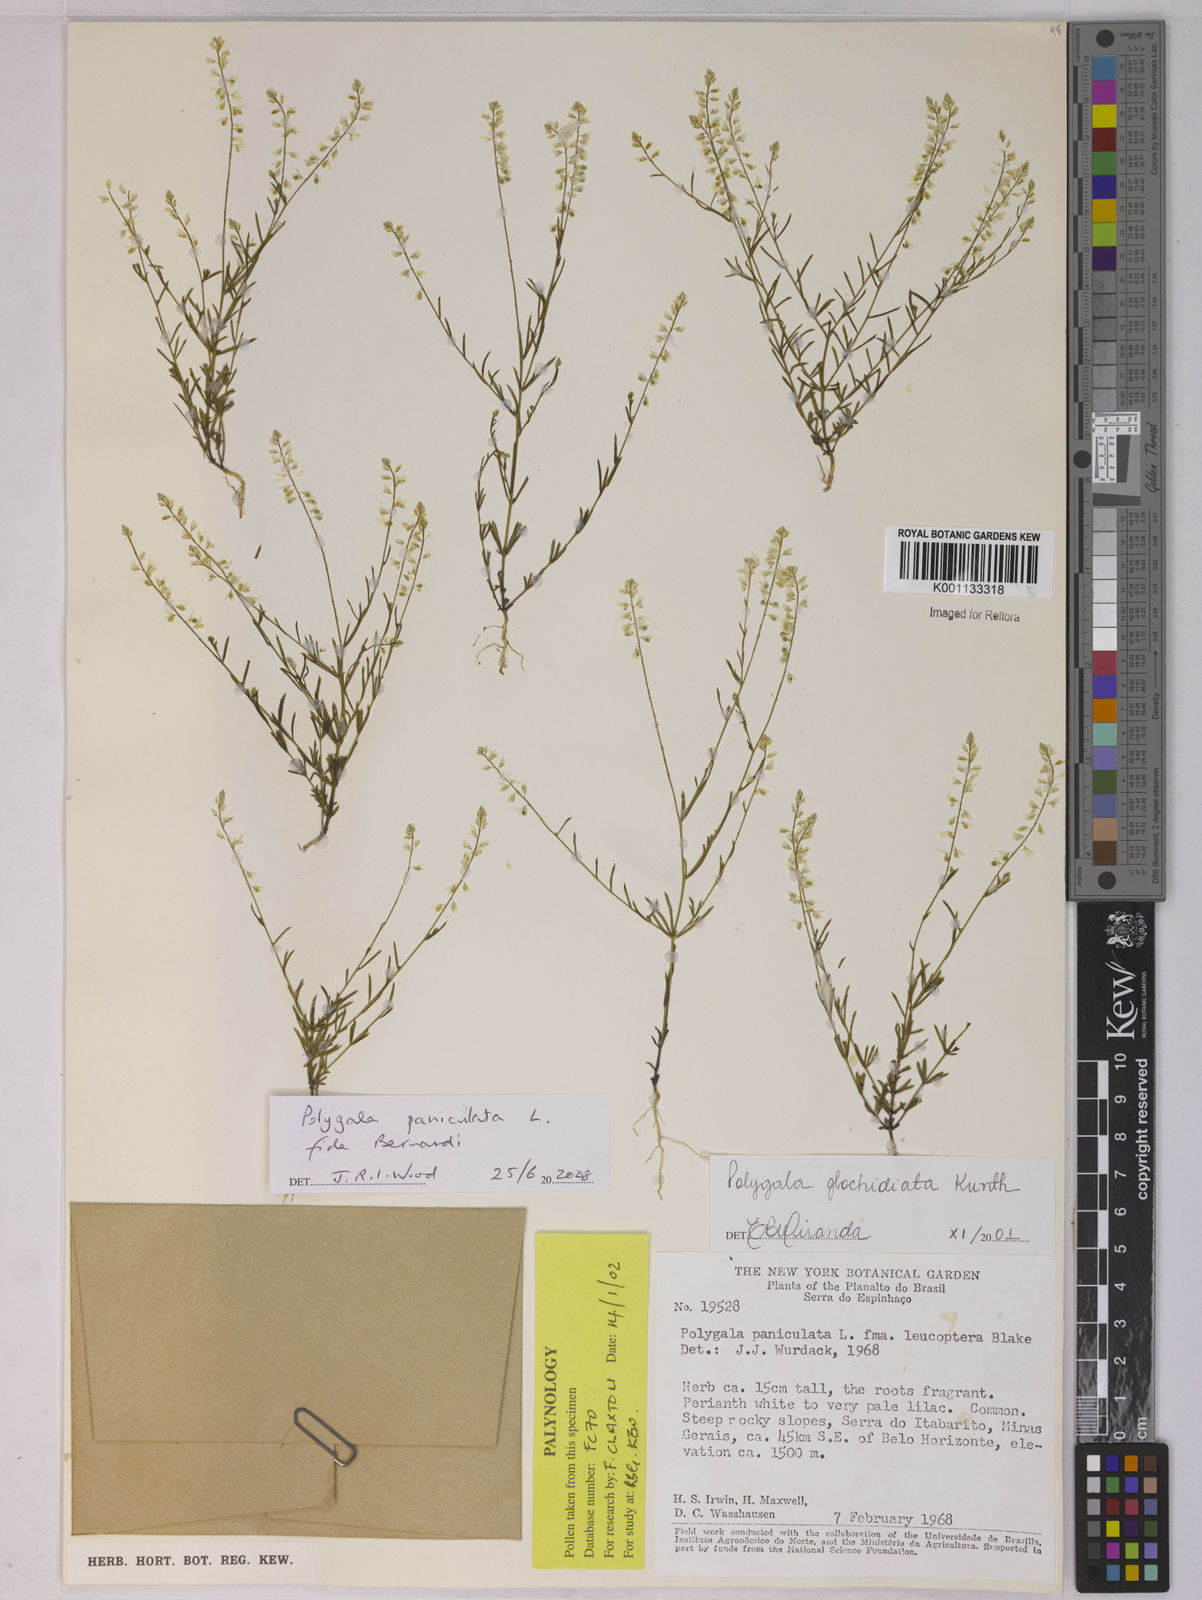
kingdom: Plantae
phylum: Tracheophyta
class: Magnoliopsida
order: Fabales
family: Polygalaceae
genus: Polygala
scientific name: Polygala paniculata
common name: Orosne
